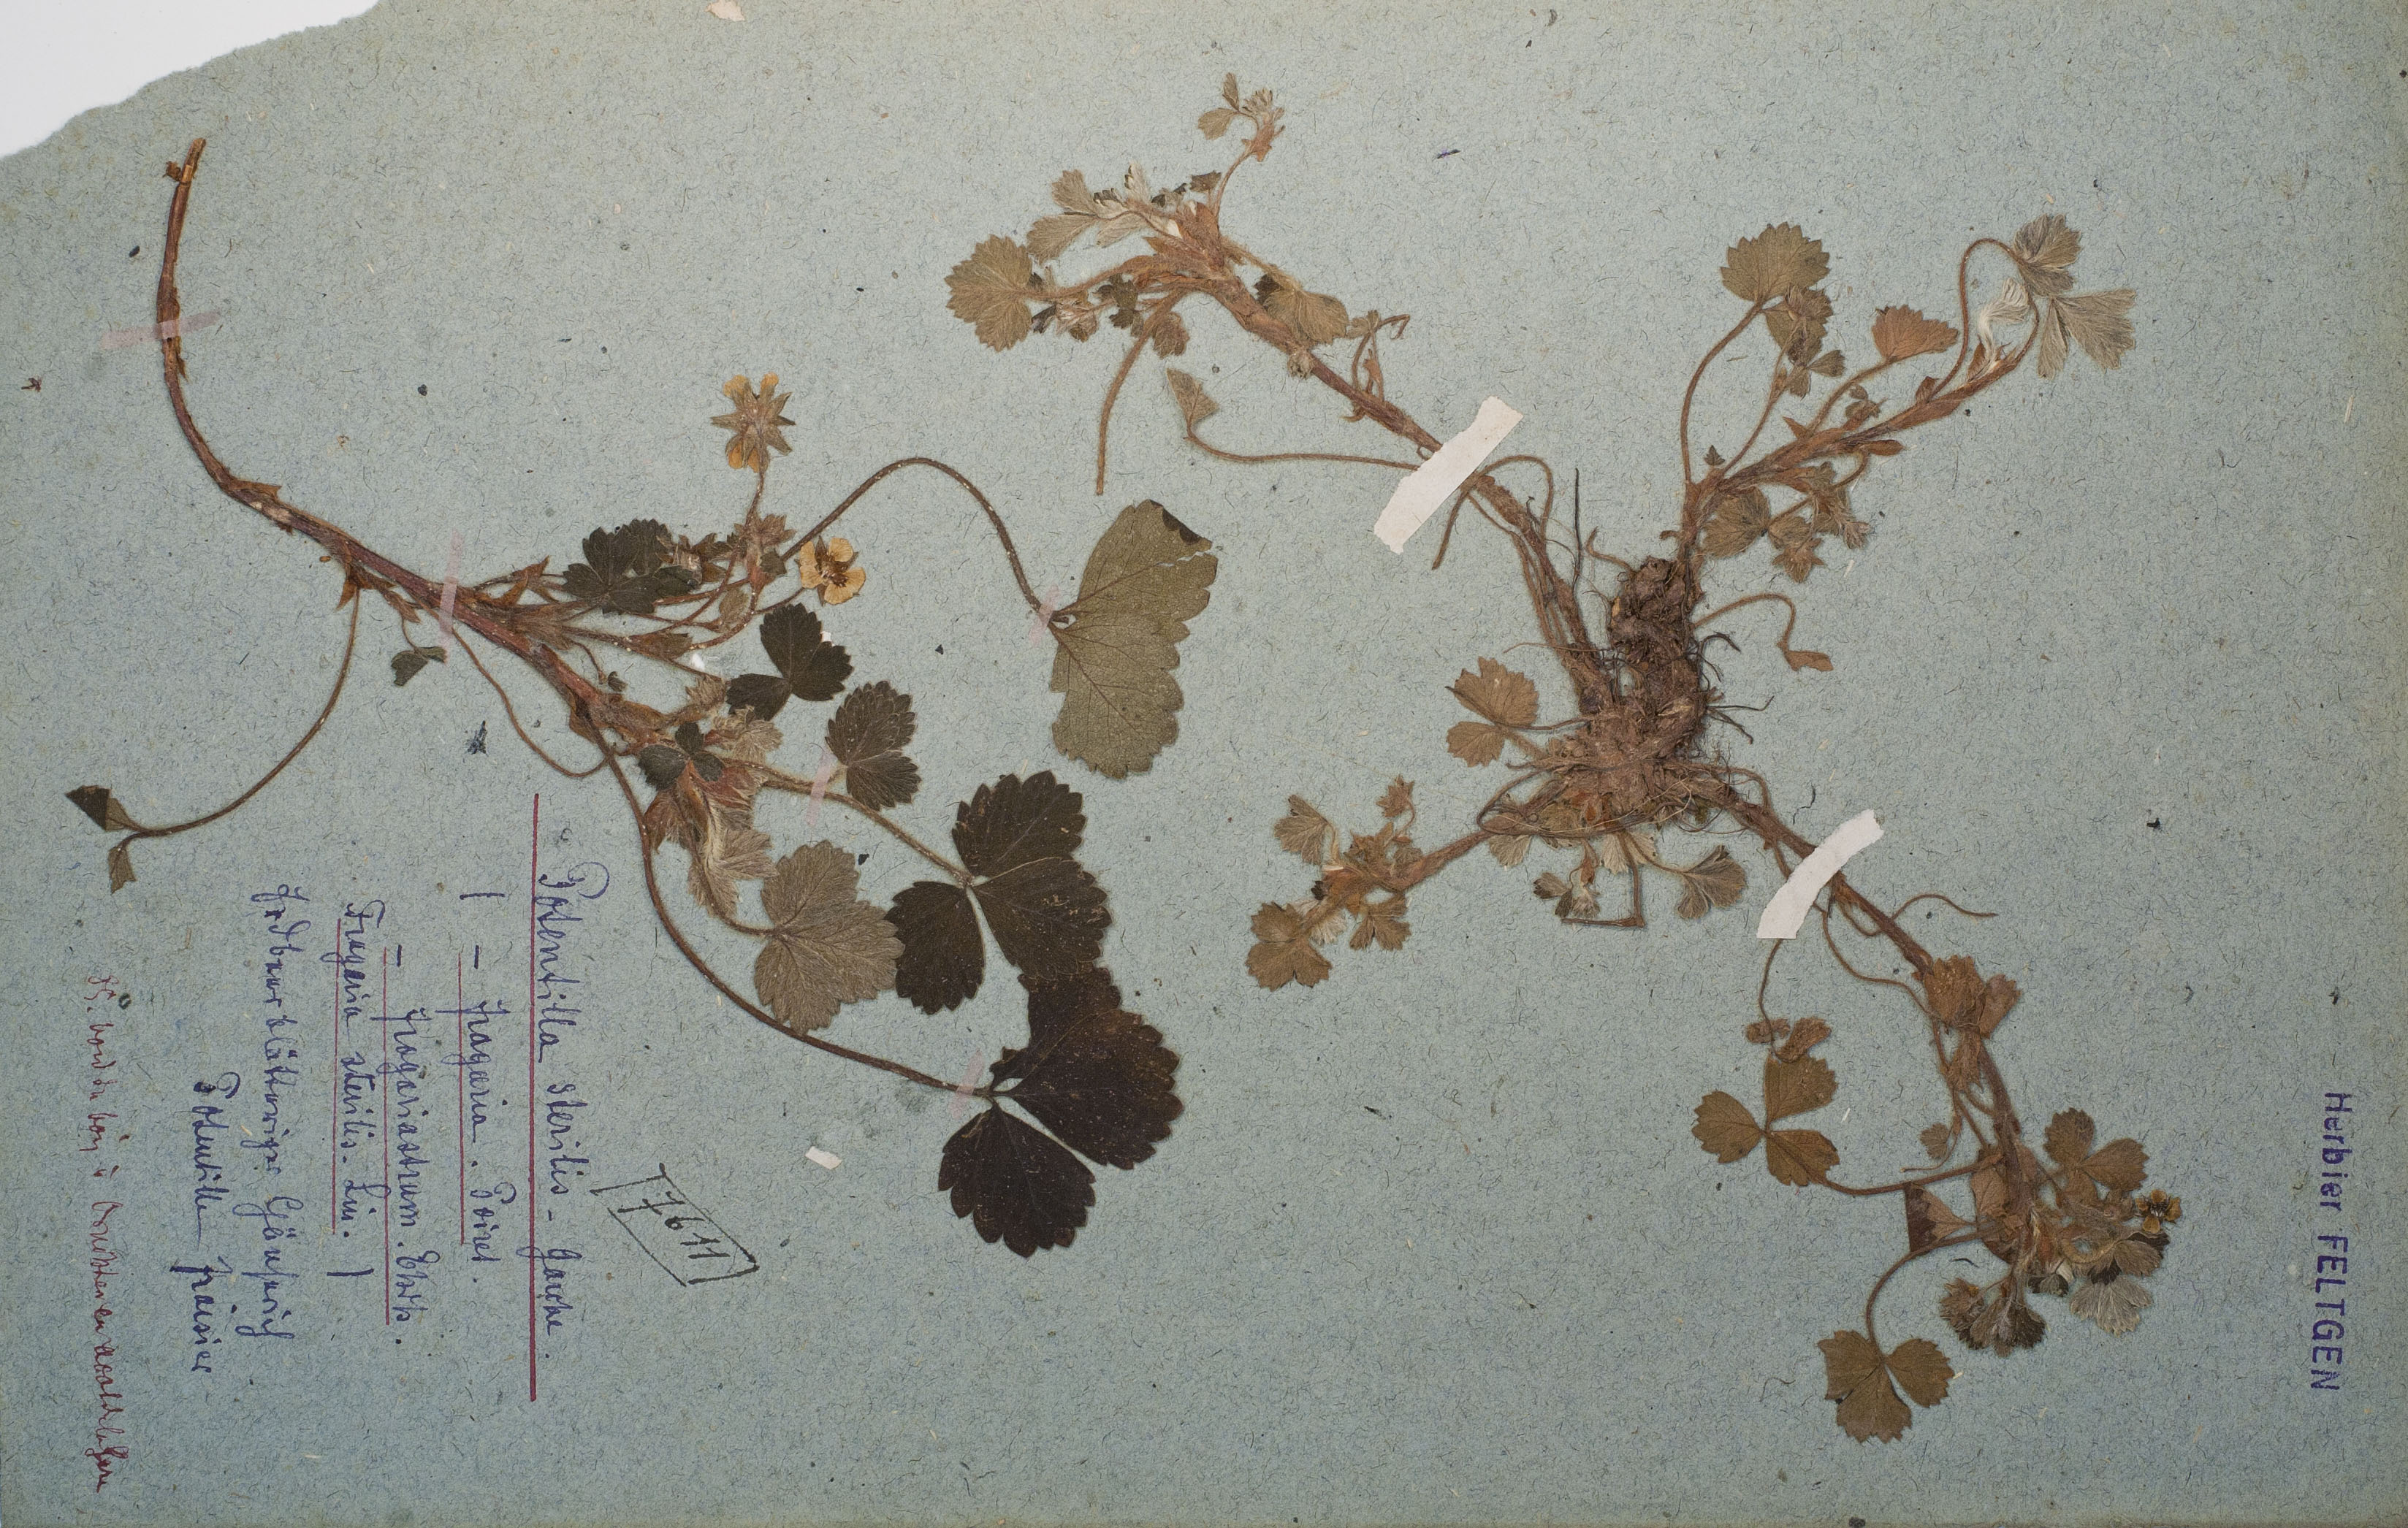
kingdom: Plantae
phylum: Tracheophyta
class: Magnoliopsida
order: Rosales
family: Rosaceae
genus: Potentilla
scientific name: Potentilla sterilis
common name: Barren strawberry
